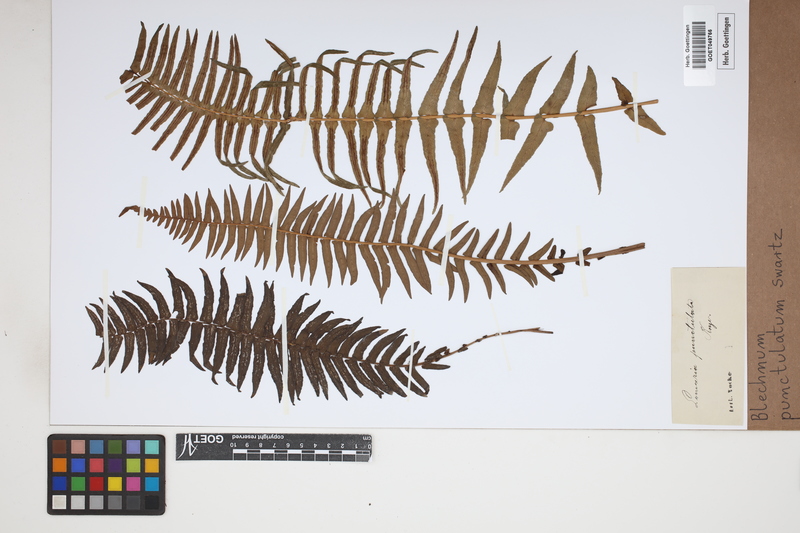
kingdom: Plantae
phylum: Tracheophyta
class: Polypodiopsida
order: Polypodiales
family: Blechnaceae
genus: Blechnum
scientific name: Blechnum punctulatum
